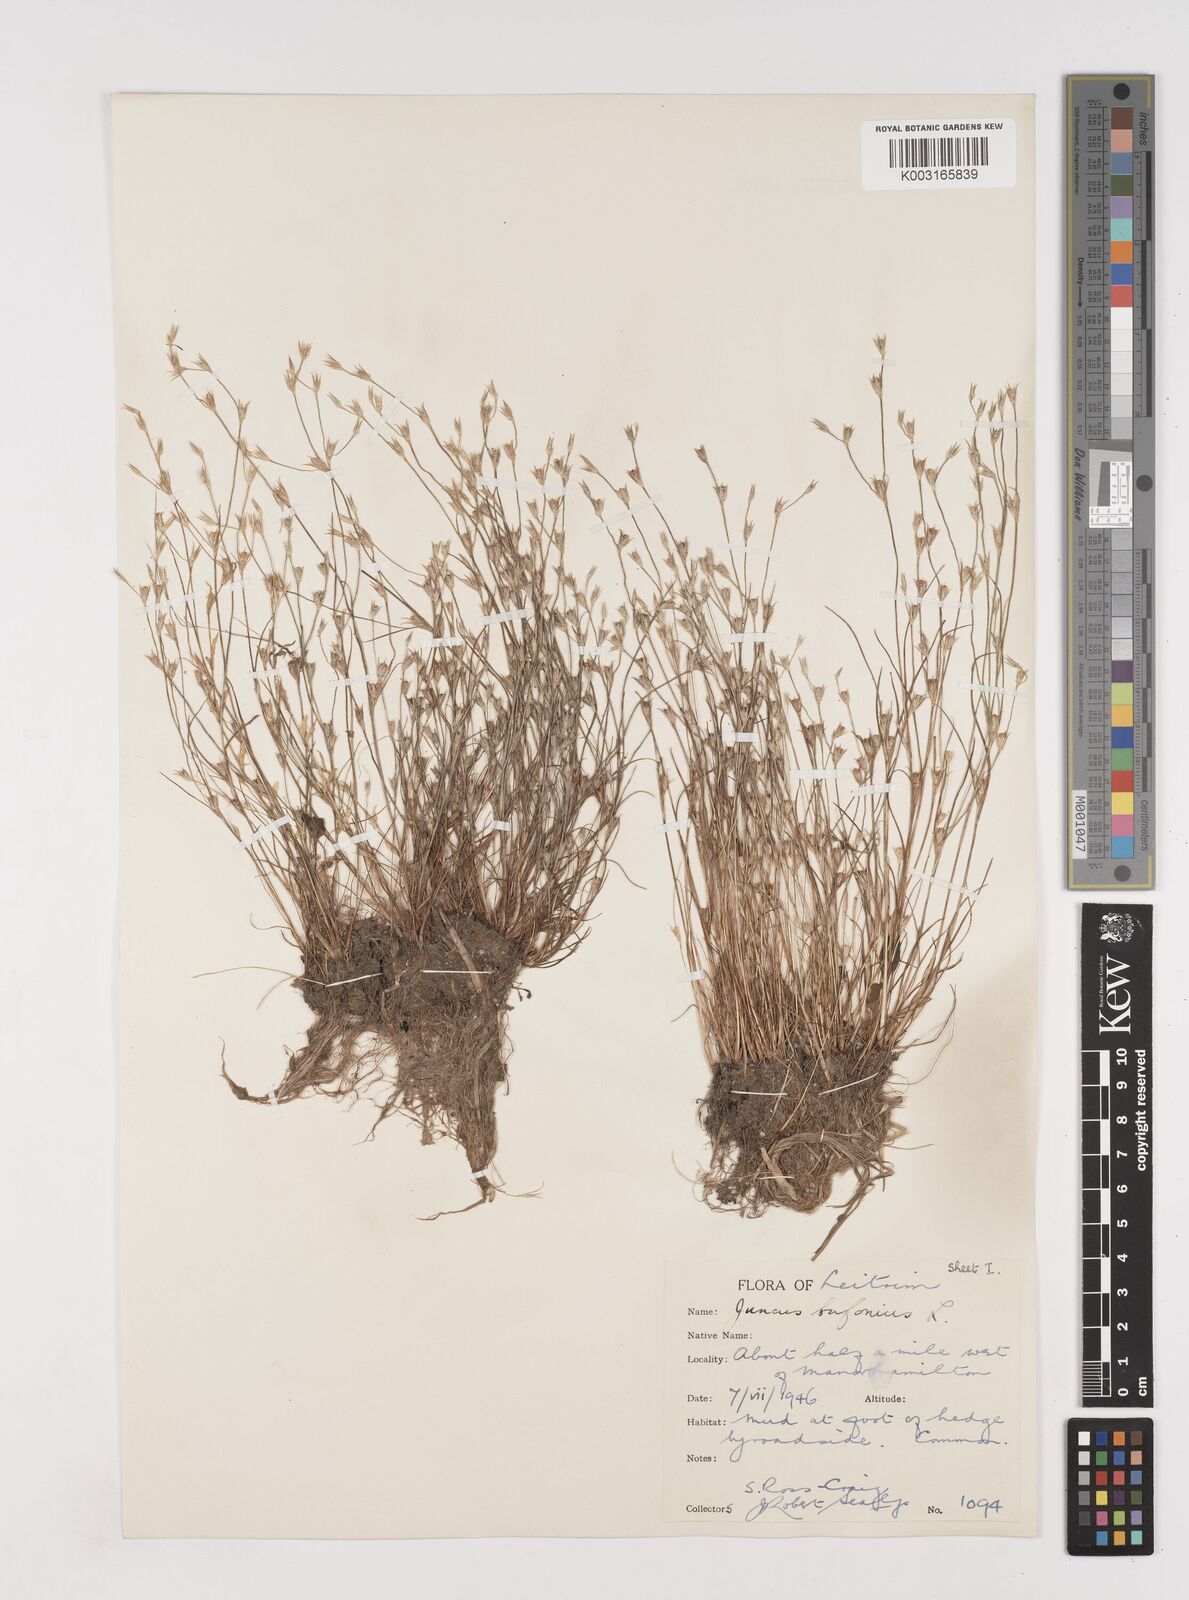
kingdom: Plantae
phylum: Tracheophyta
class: Liliopsida
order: Poales
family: Juncaceae
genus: Juncus
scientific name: Juncus bufonius
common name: Toad rush
